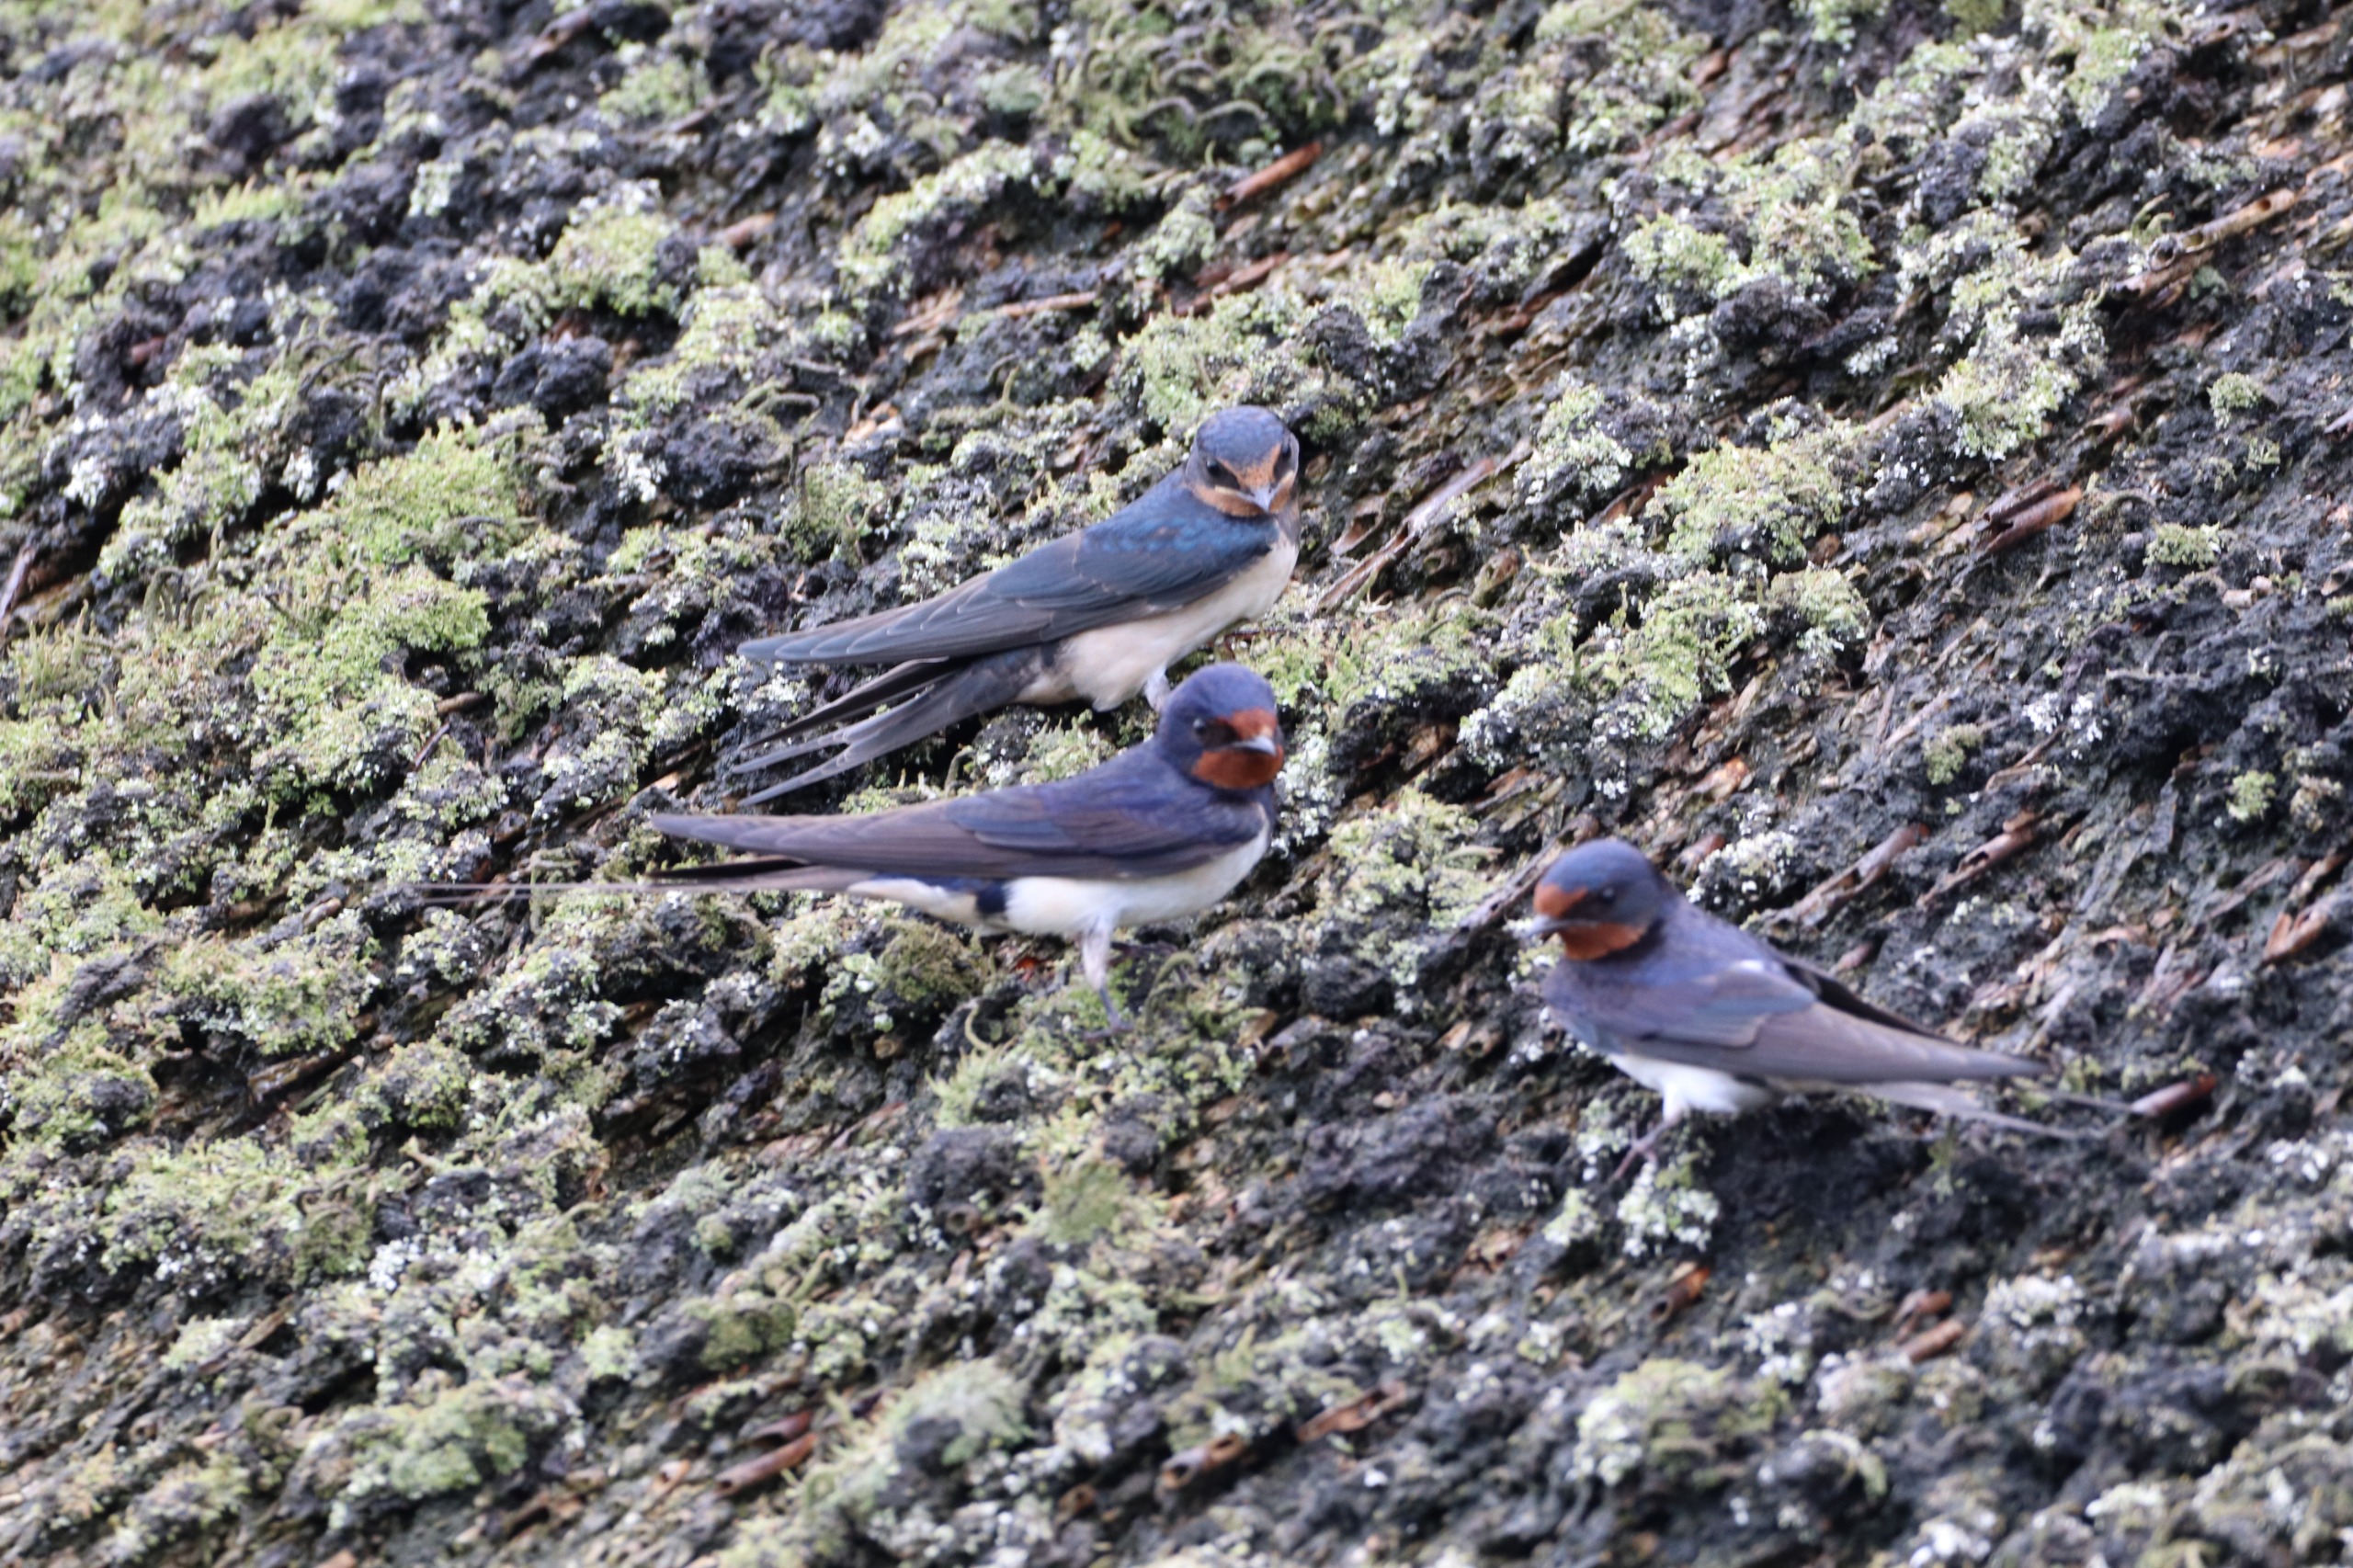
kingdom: Animalia
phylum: Chordata
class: Aves
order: Passeriformes
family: Hirundinidae
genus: Hirundo
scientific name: Hirundo rustica
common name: Landsvale
